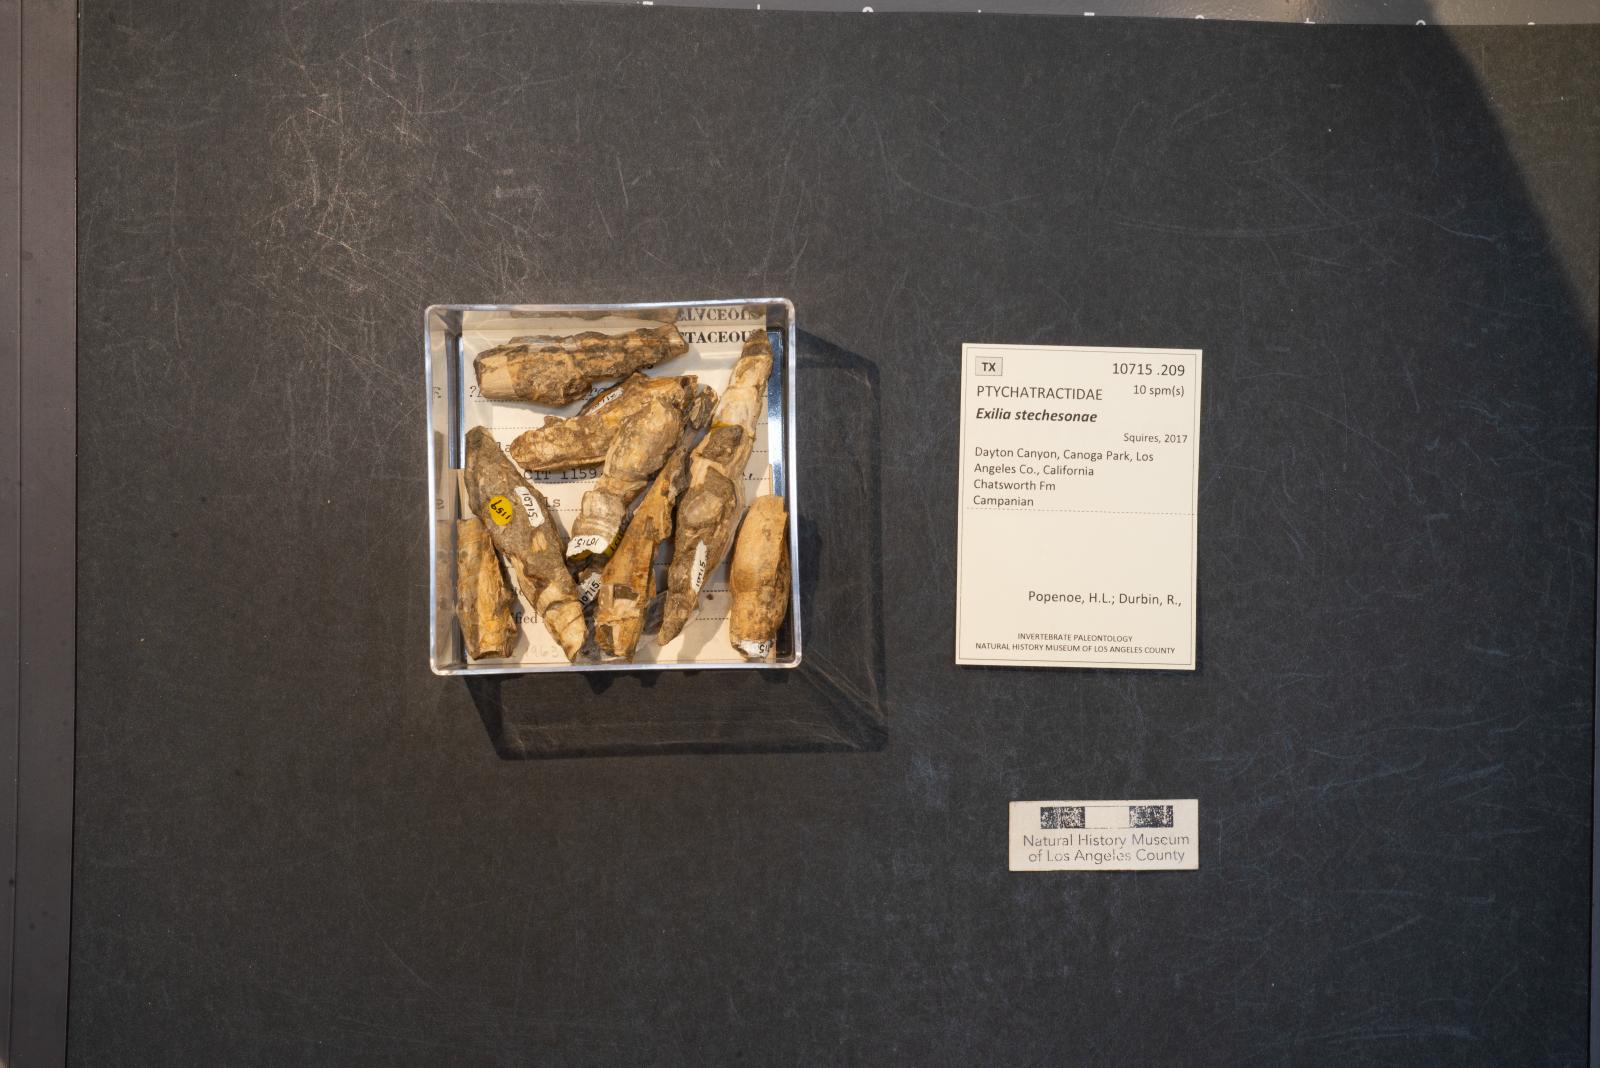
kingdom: Animalia
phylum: Mollusca
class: Gastropoda
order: Neogastropoda
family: Ptychatractidae
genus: Exilia
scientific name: Exilia stechesonae
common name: Snail
